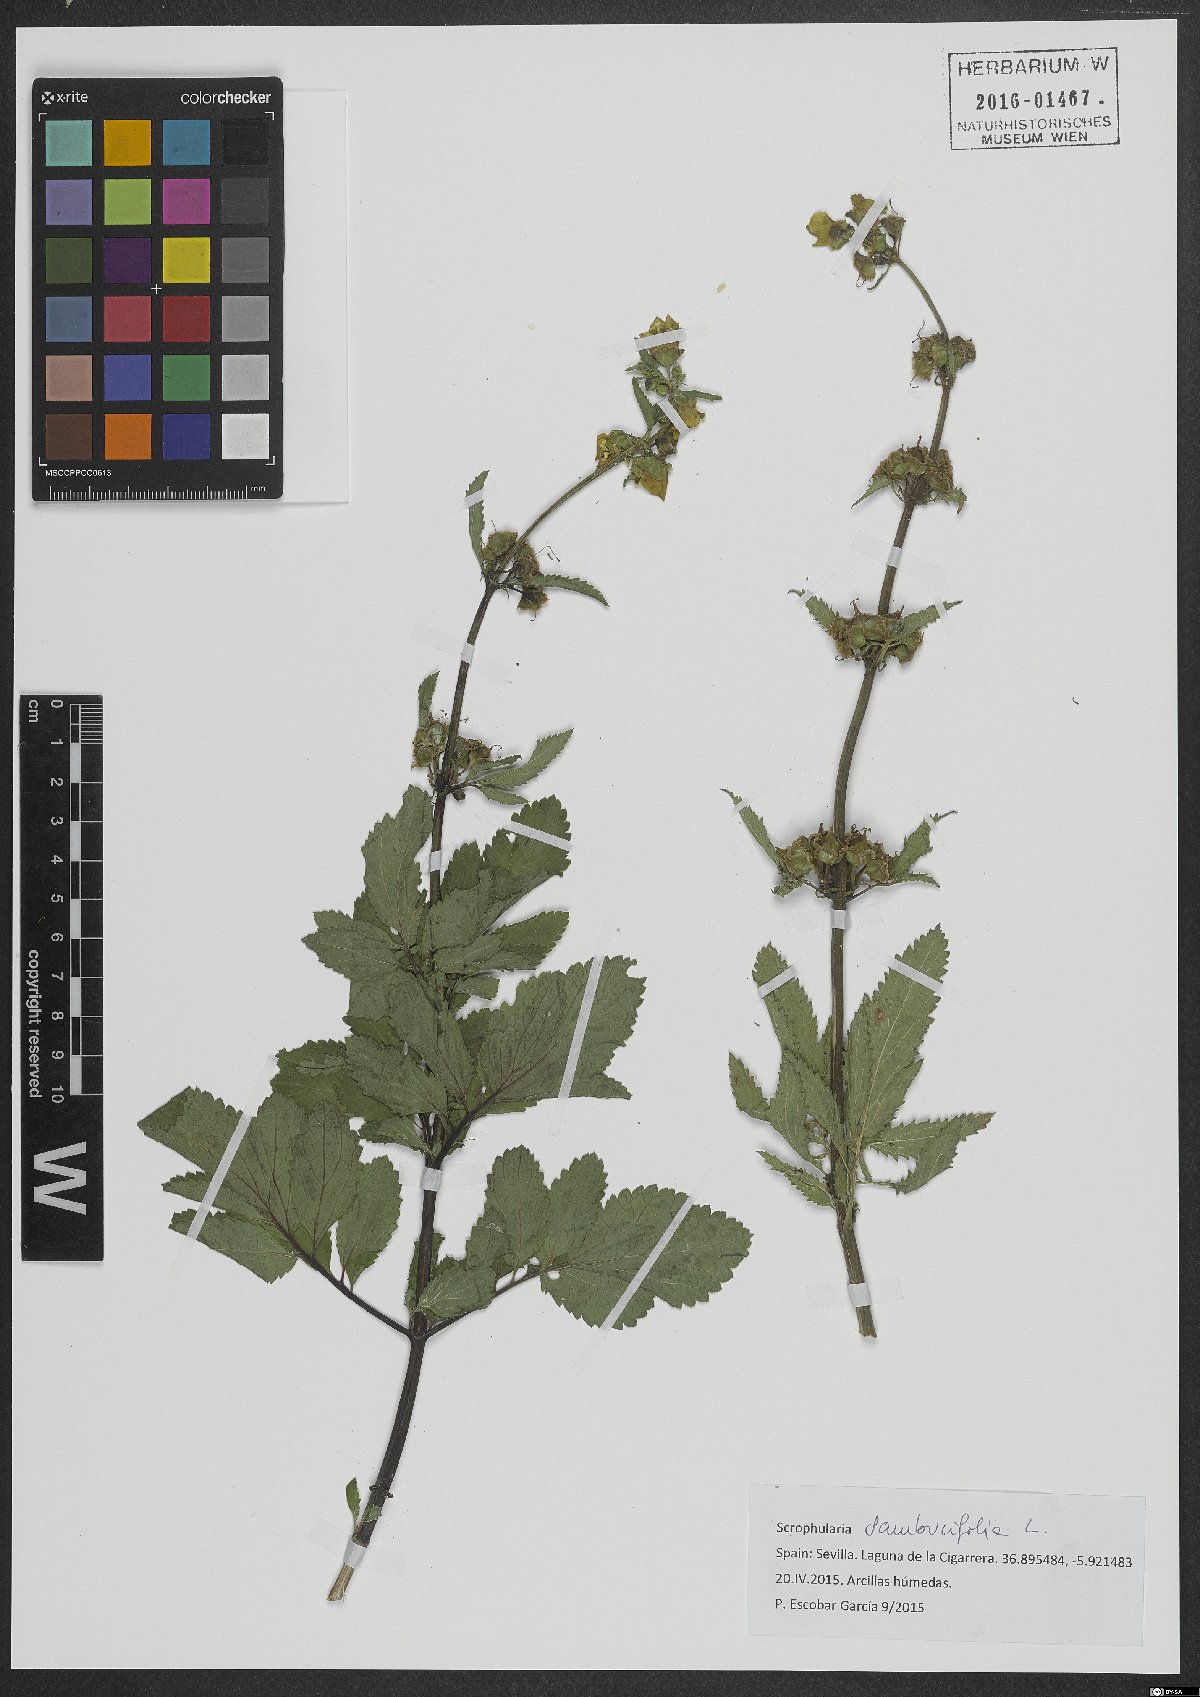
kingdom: Plantae
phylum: Tracheophyta
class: Magnoliopsida
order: Lamiales
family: Scrophulariaceae
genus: Scrophularia
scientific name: Scrophularia sambucifolia
